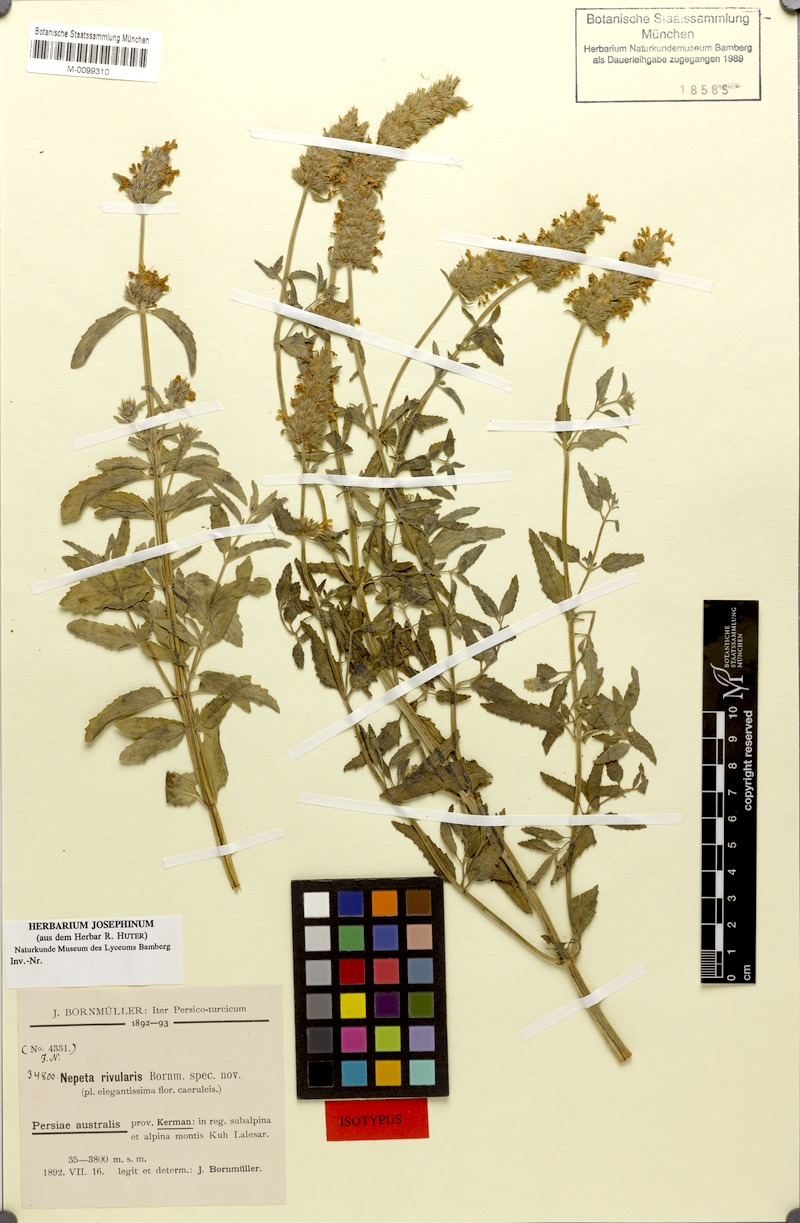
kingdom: Plantae
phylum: Tracheophyta
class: Magnoliopsida
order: Lamiales
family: Lamiaceae
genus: Nepeta
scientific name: Nepeta rivularis
